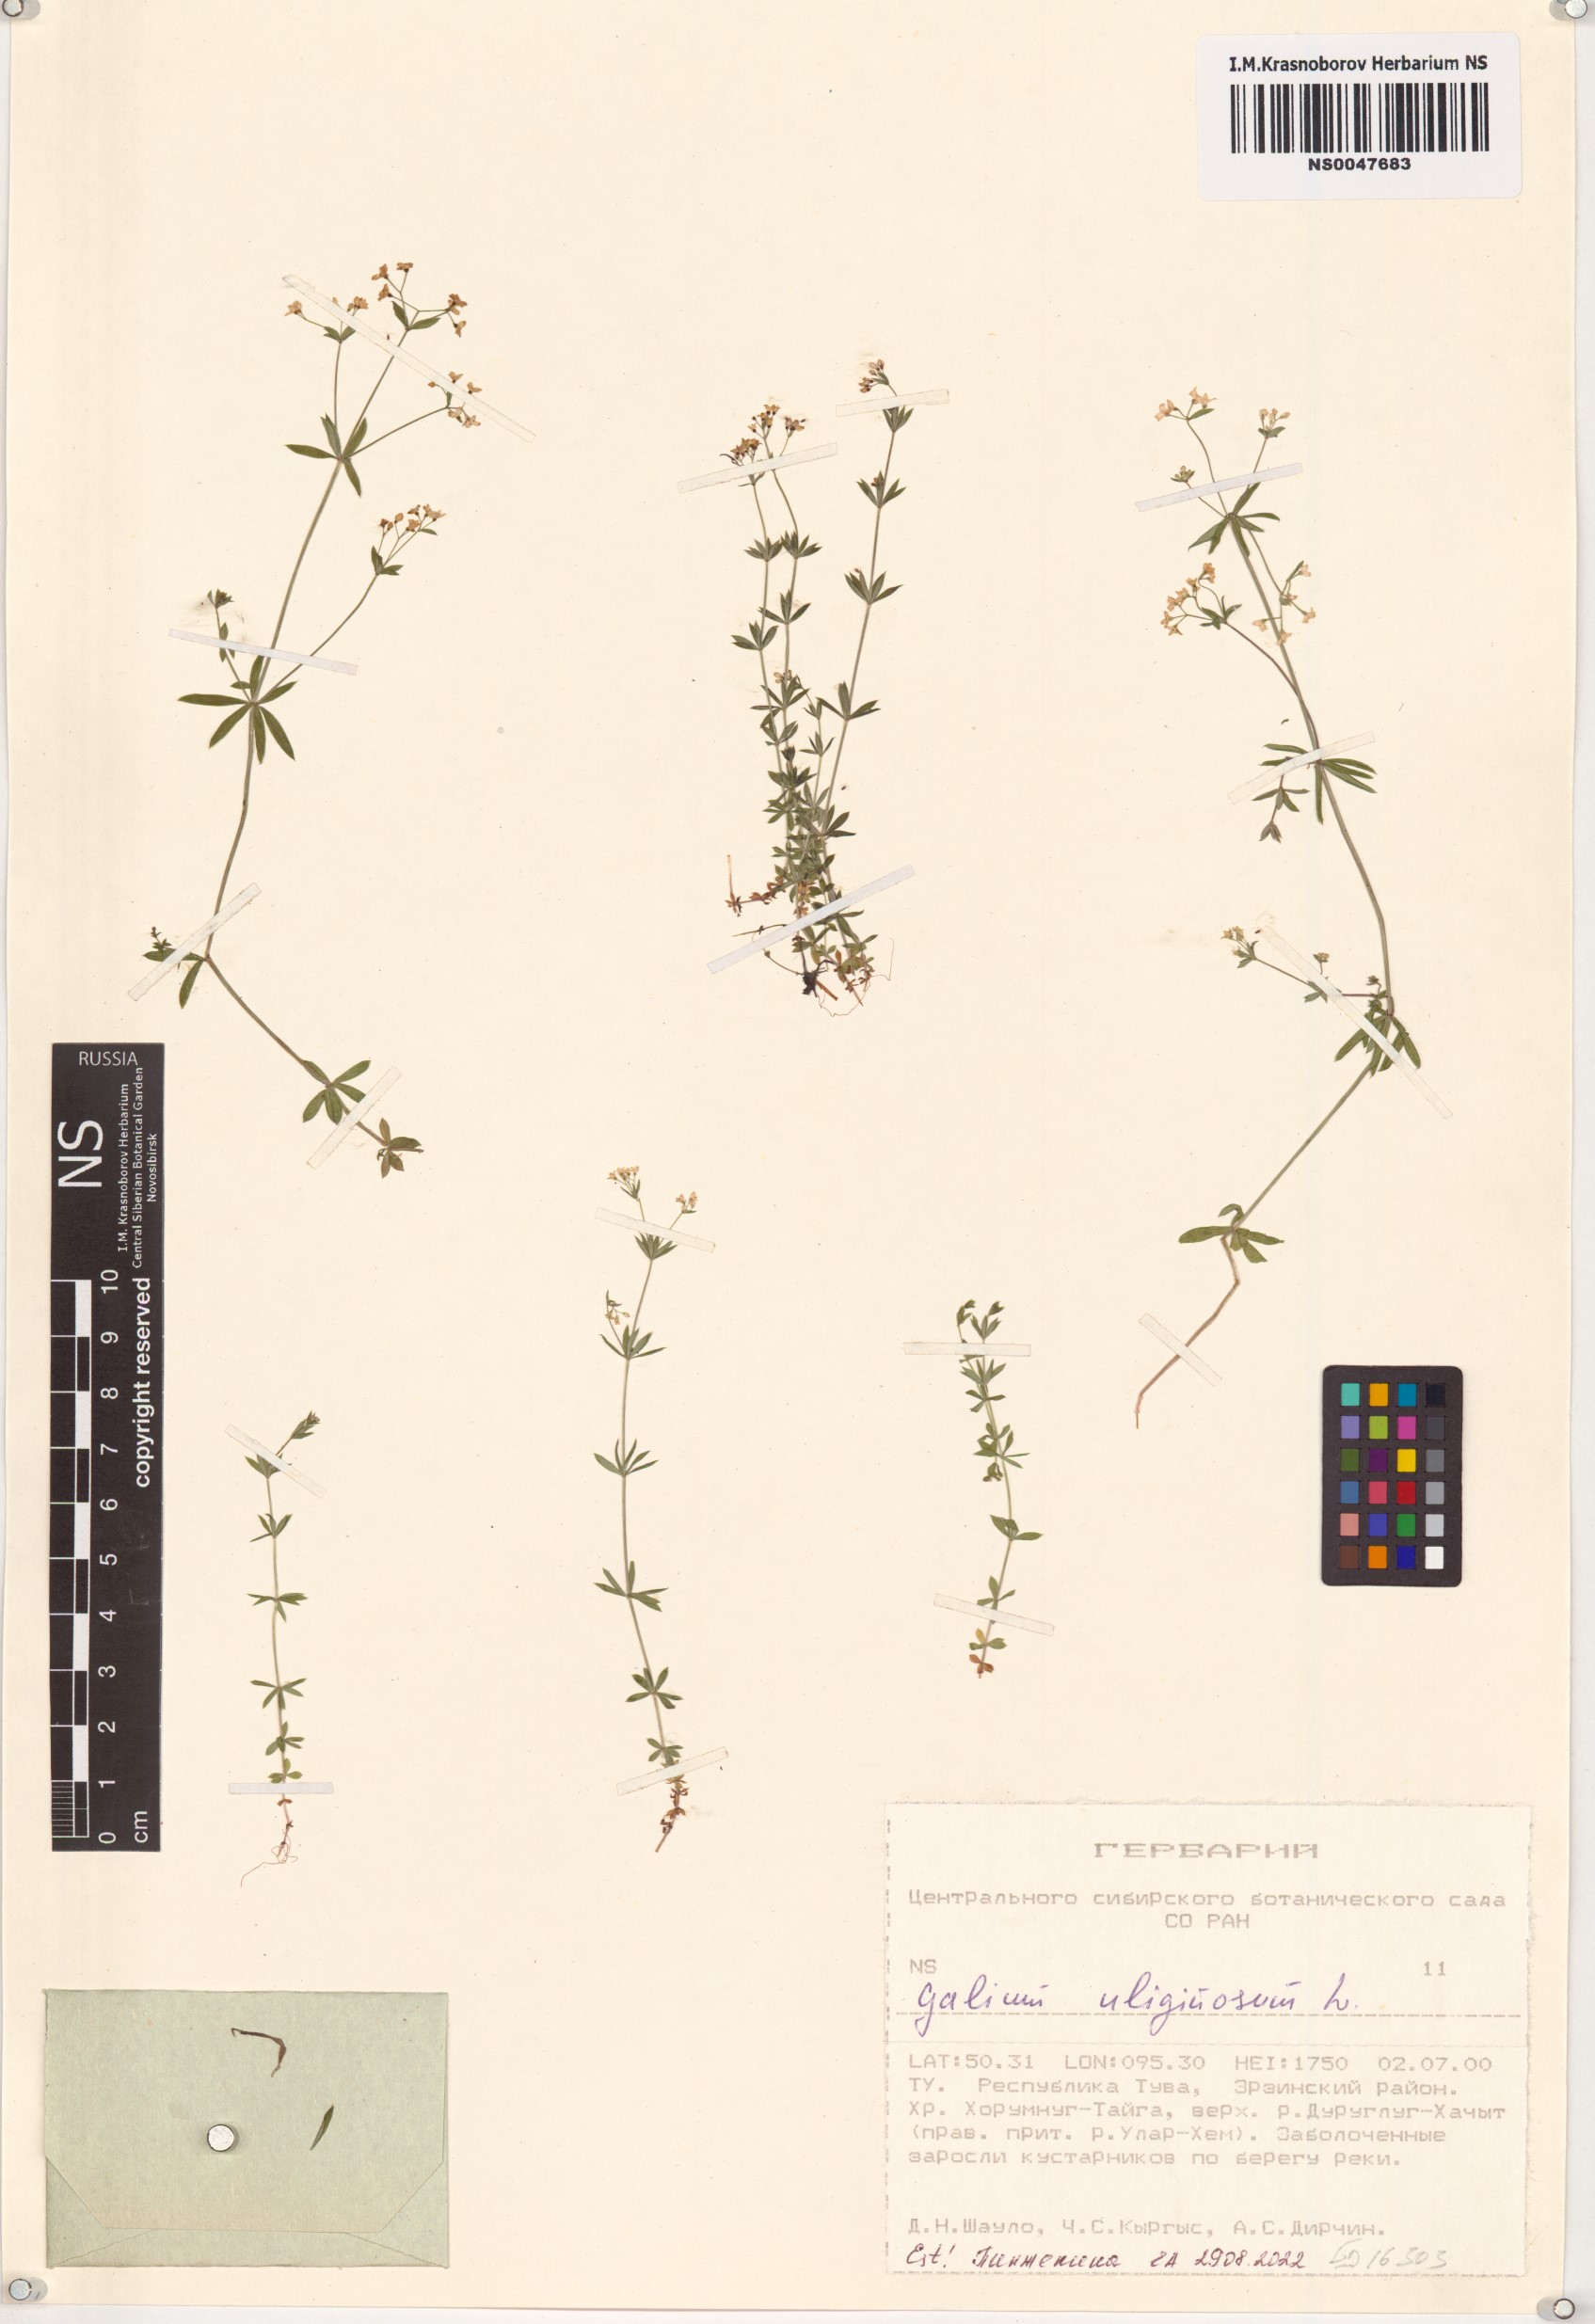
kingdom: Plantae
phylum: Tracheophyta
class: Magnoliopsida
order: Gentianales
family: Rubiaceae
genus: Galium
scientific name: Galium uliginosum
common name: Fen bedstraw
